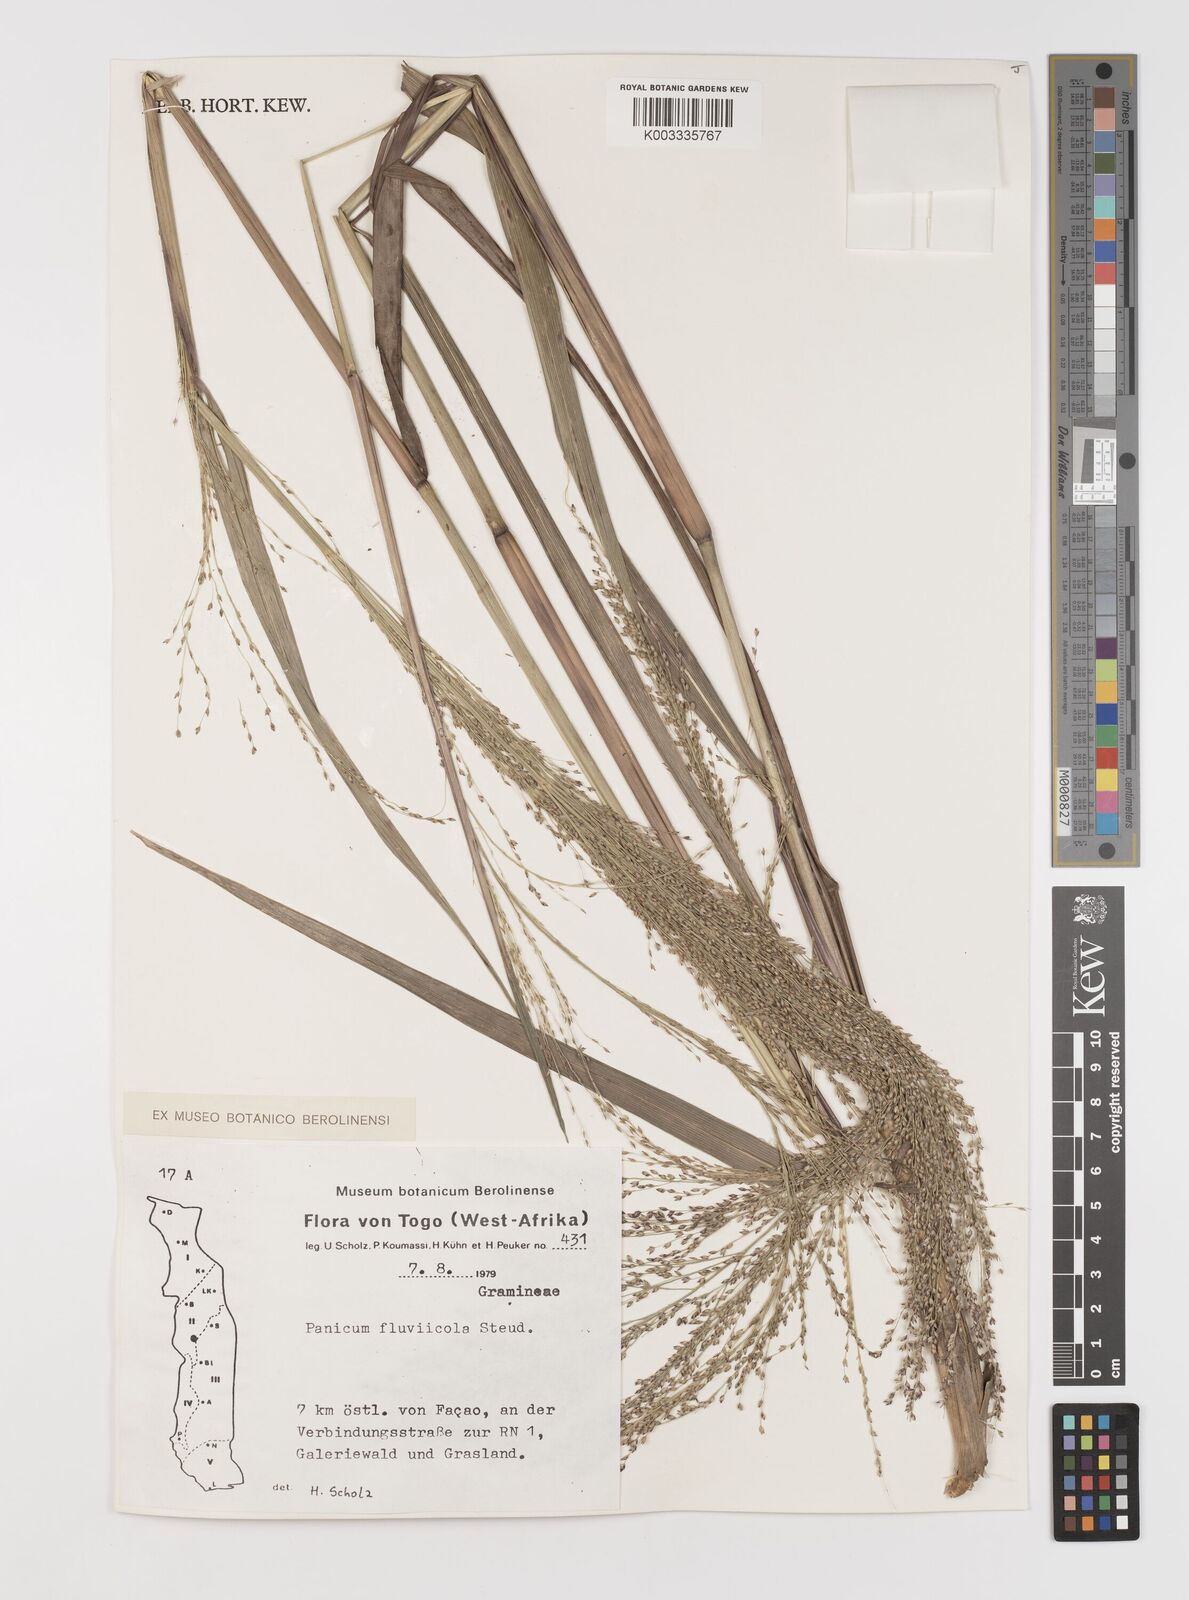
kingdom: Plantae
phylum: Tracheophyta
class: Liliopsida
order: Poales
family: Poaceae
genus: Panicum
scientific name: Panicum fluviicola
